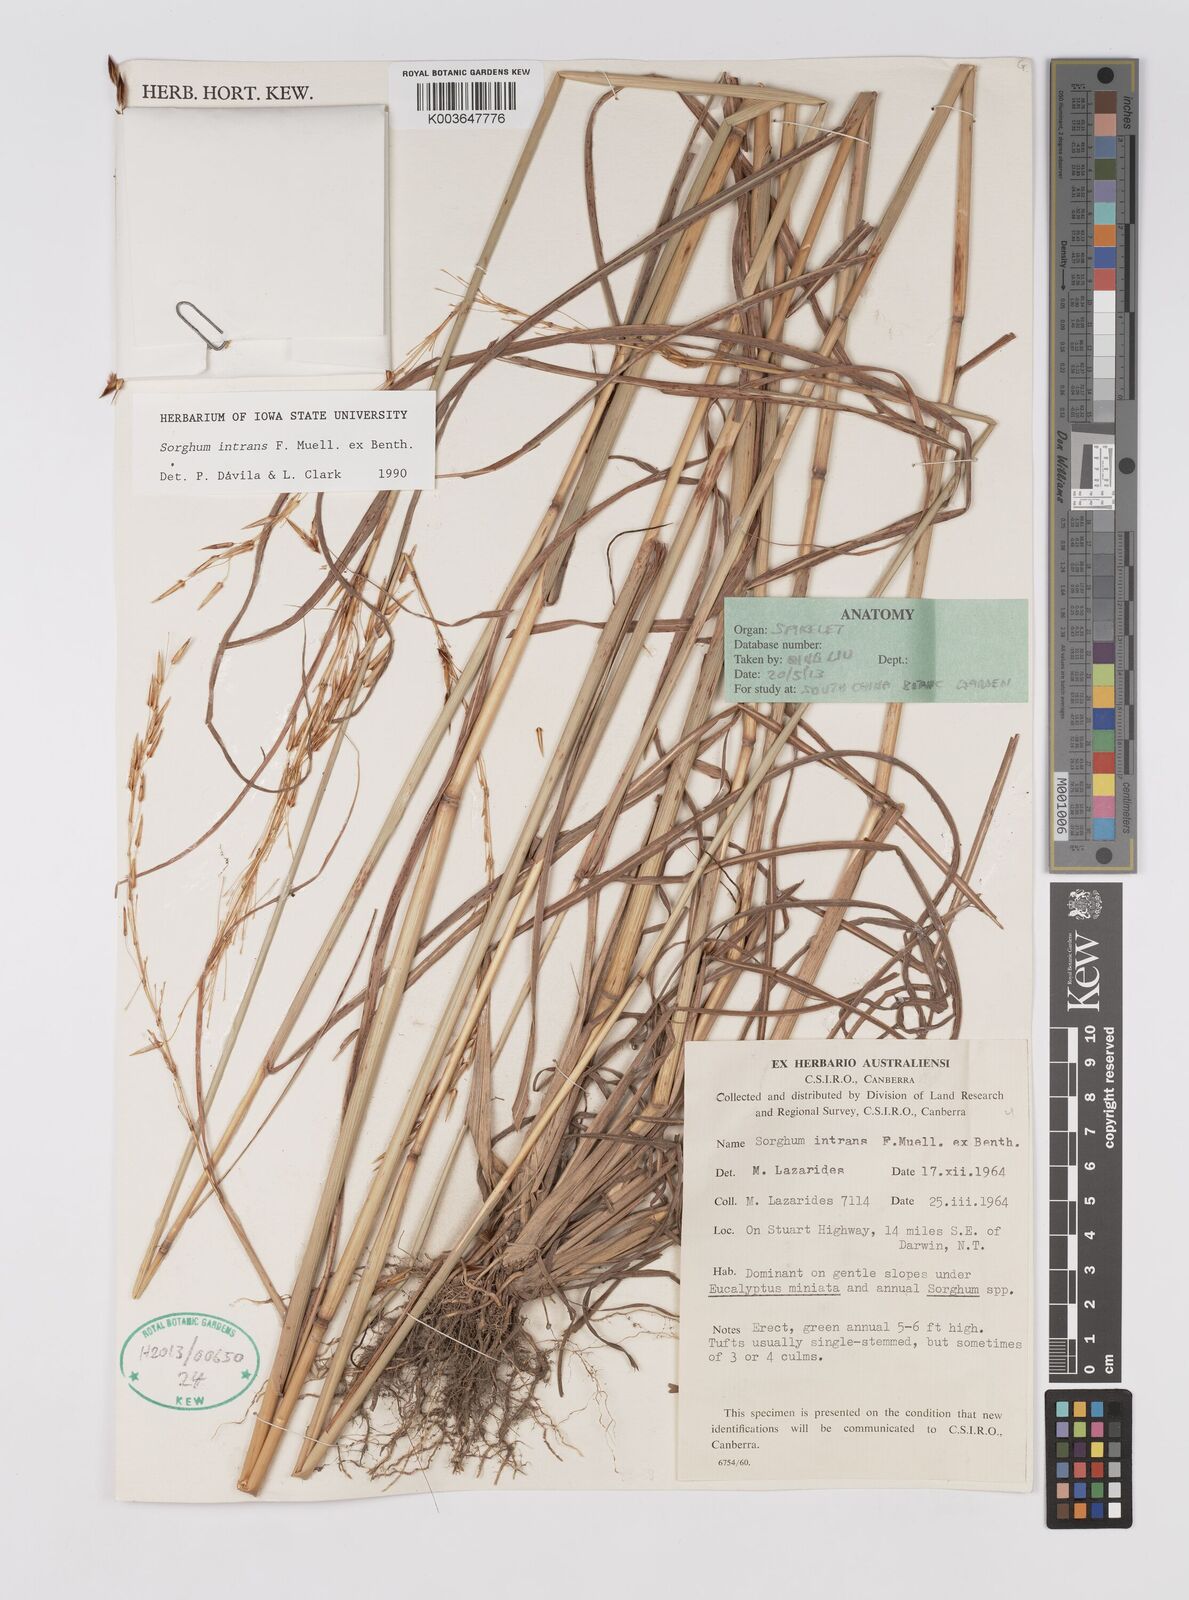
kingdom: Plantae
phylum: Tracheophyta
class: Liliopsida
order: Poales
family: Poaceae
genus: Sarga
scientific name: Sarga intrans
